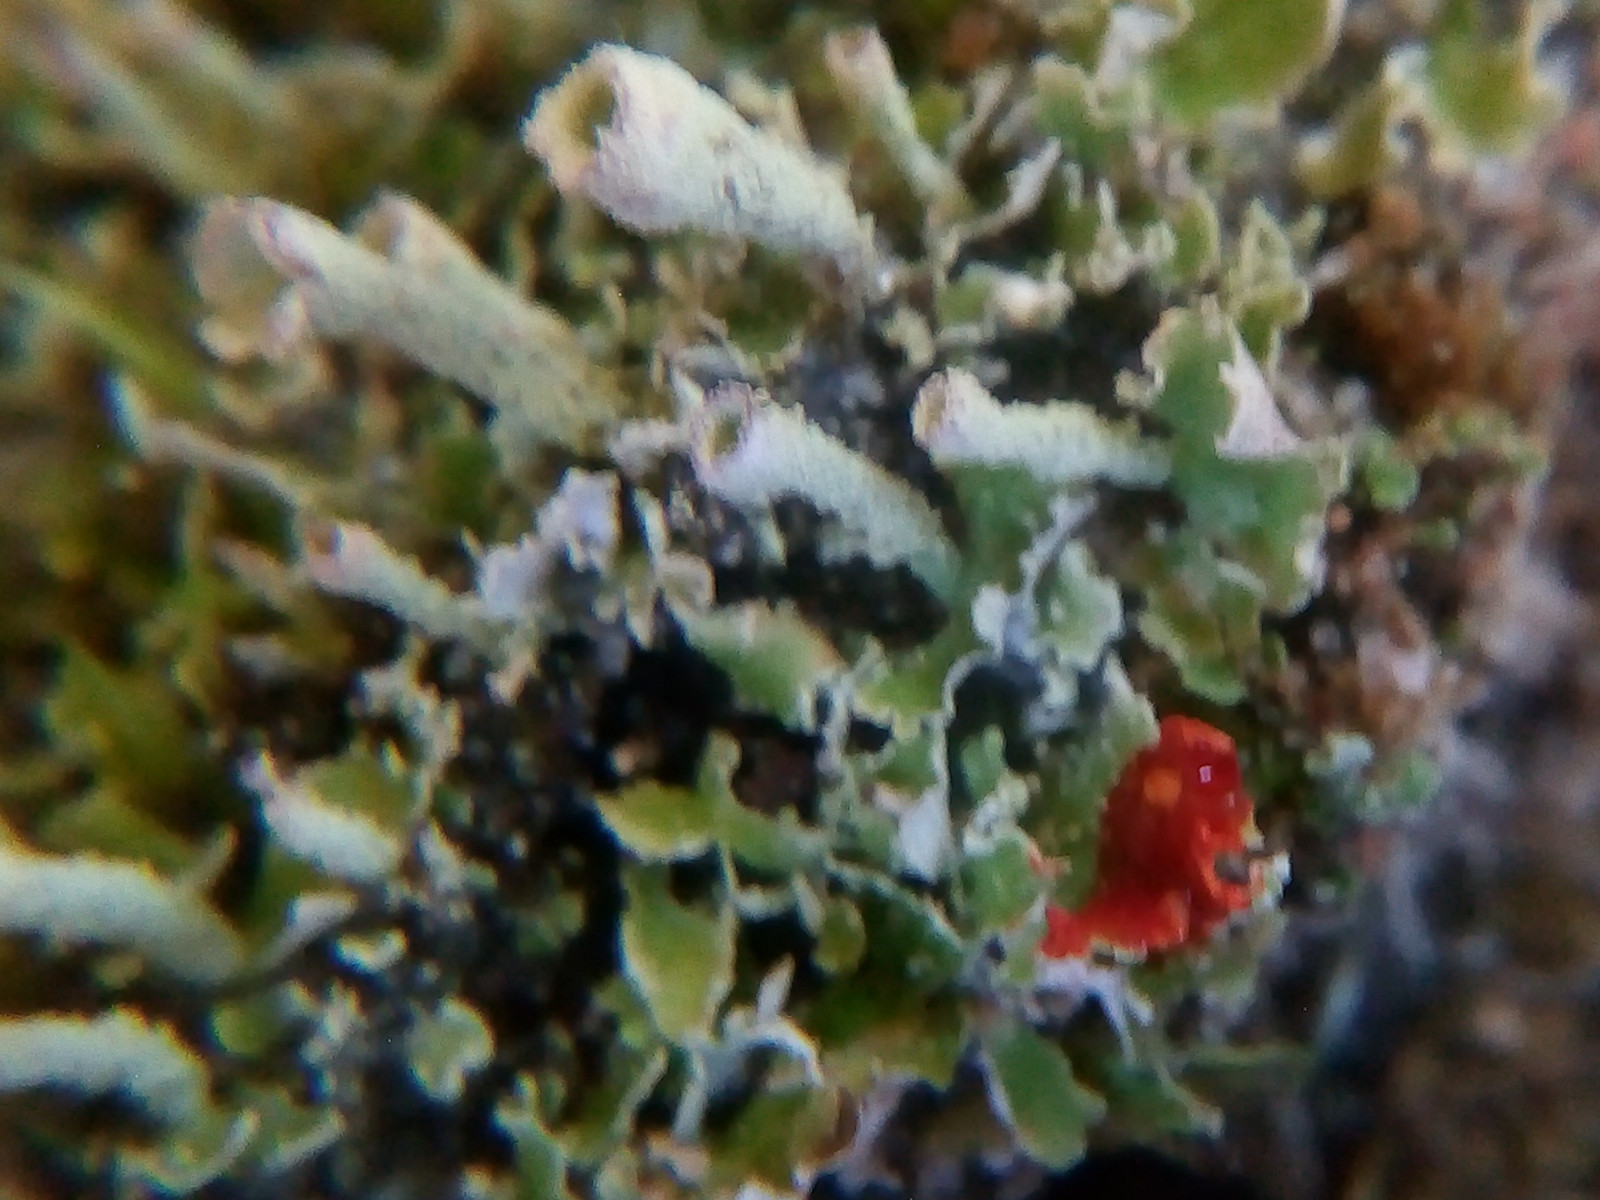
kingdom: Fungi
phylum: Ascomycota
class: Lecanoromycetes
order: Lecanorales
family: Cladoniaceae
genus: Cladonia
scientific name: Cladonia humilis
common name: lav bægerlav
